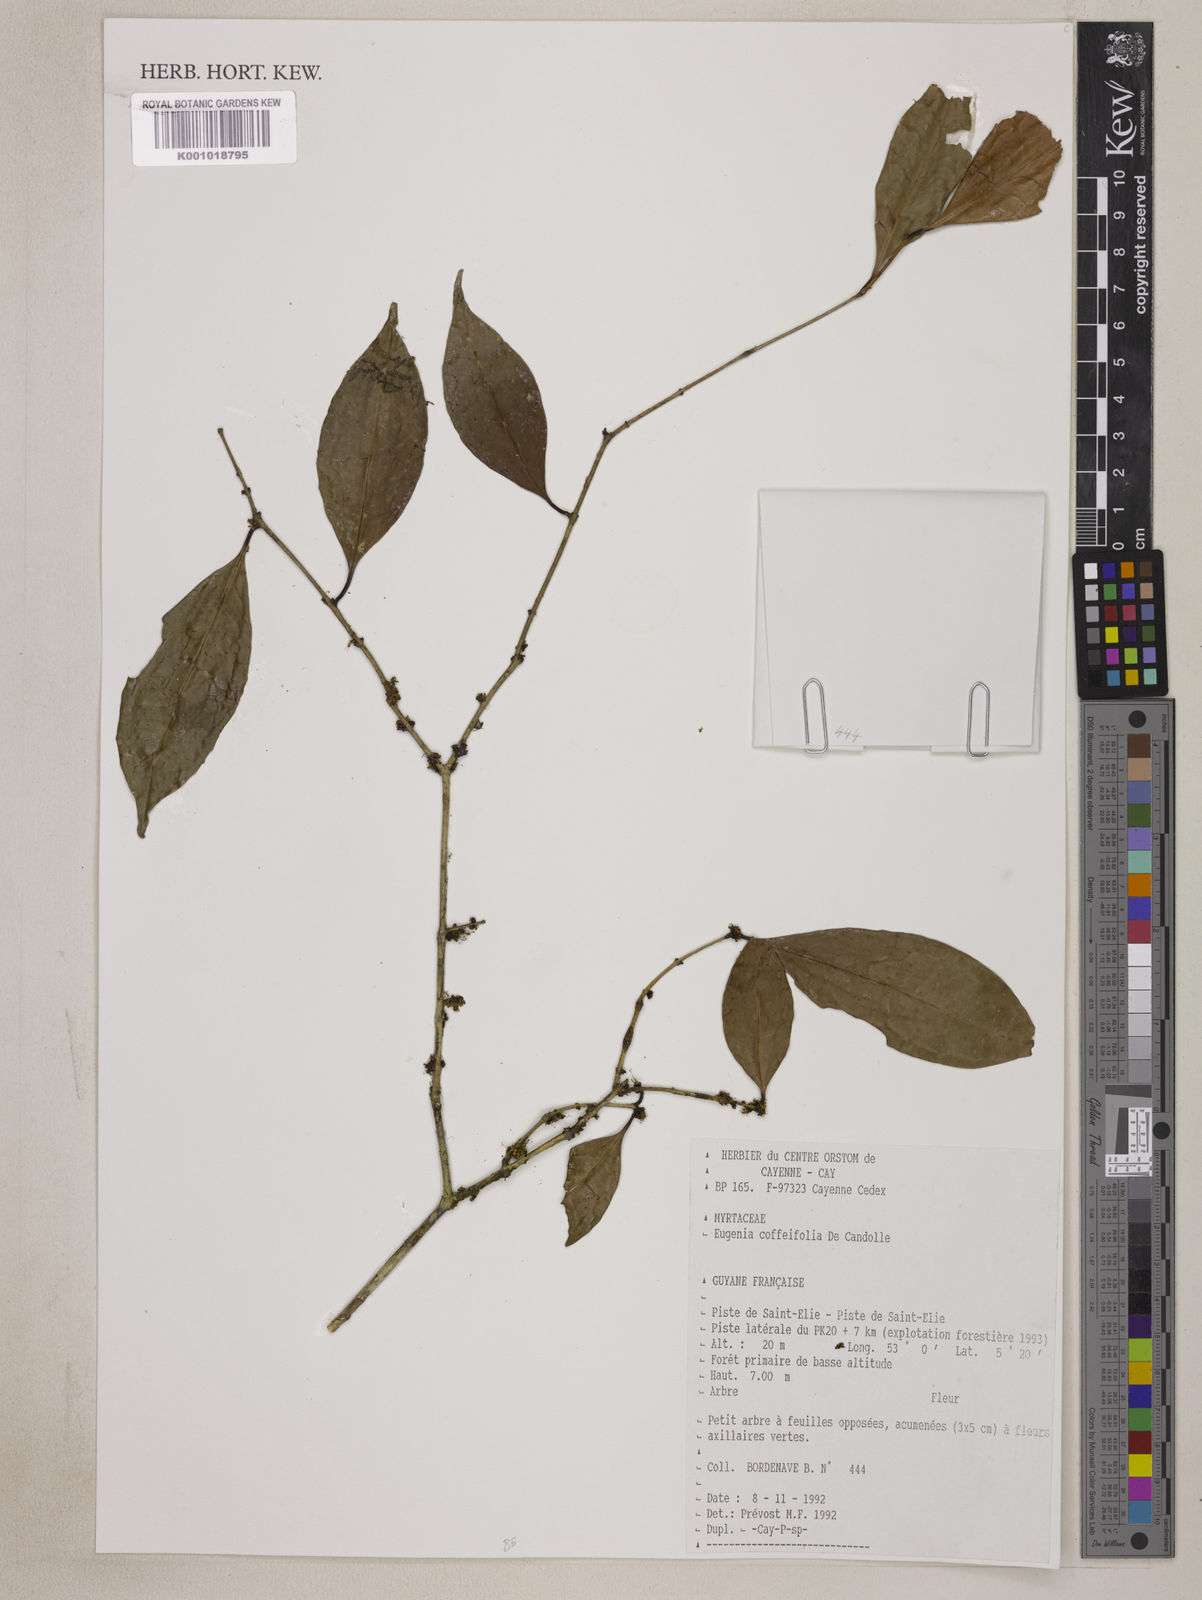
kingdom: Plantae
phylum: Tracheophyta
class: Magnoliopsida
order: Myrtales
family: Myrtaceae
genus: Eugenia
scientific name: Eugenia coffeifolia
